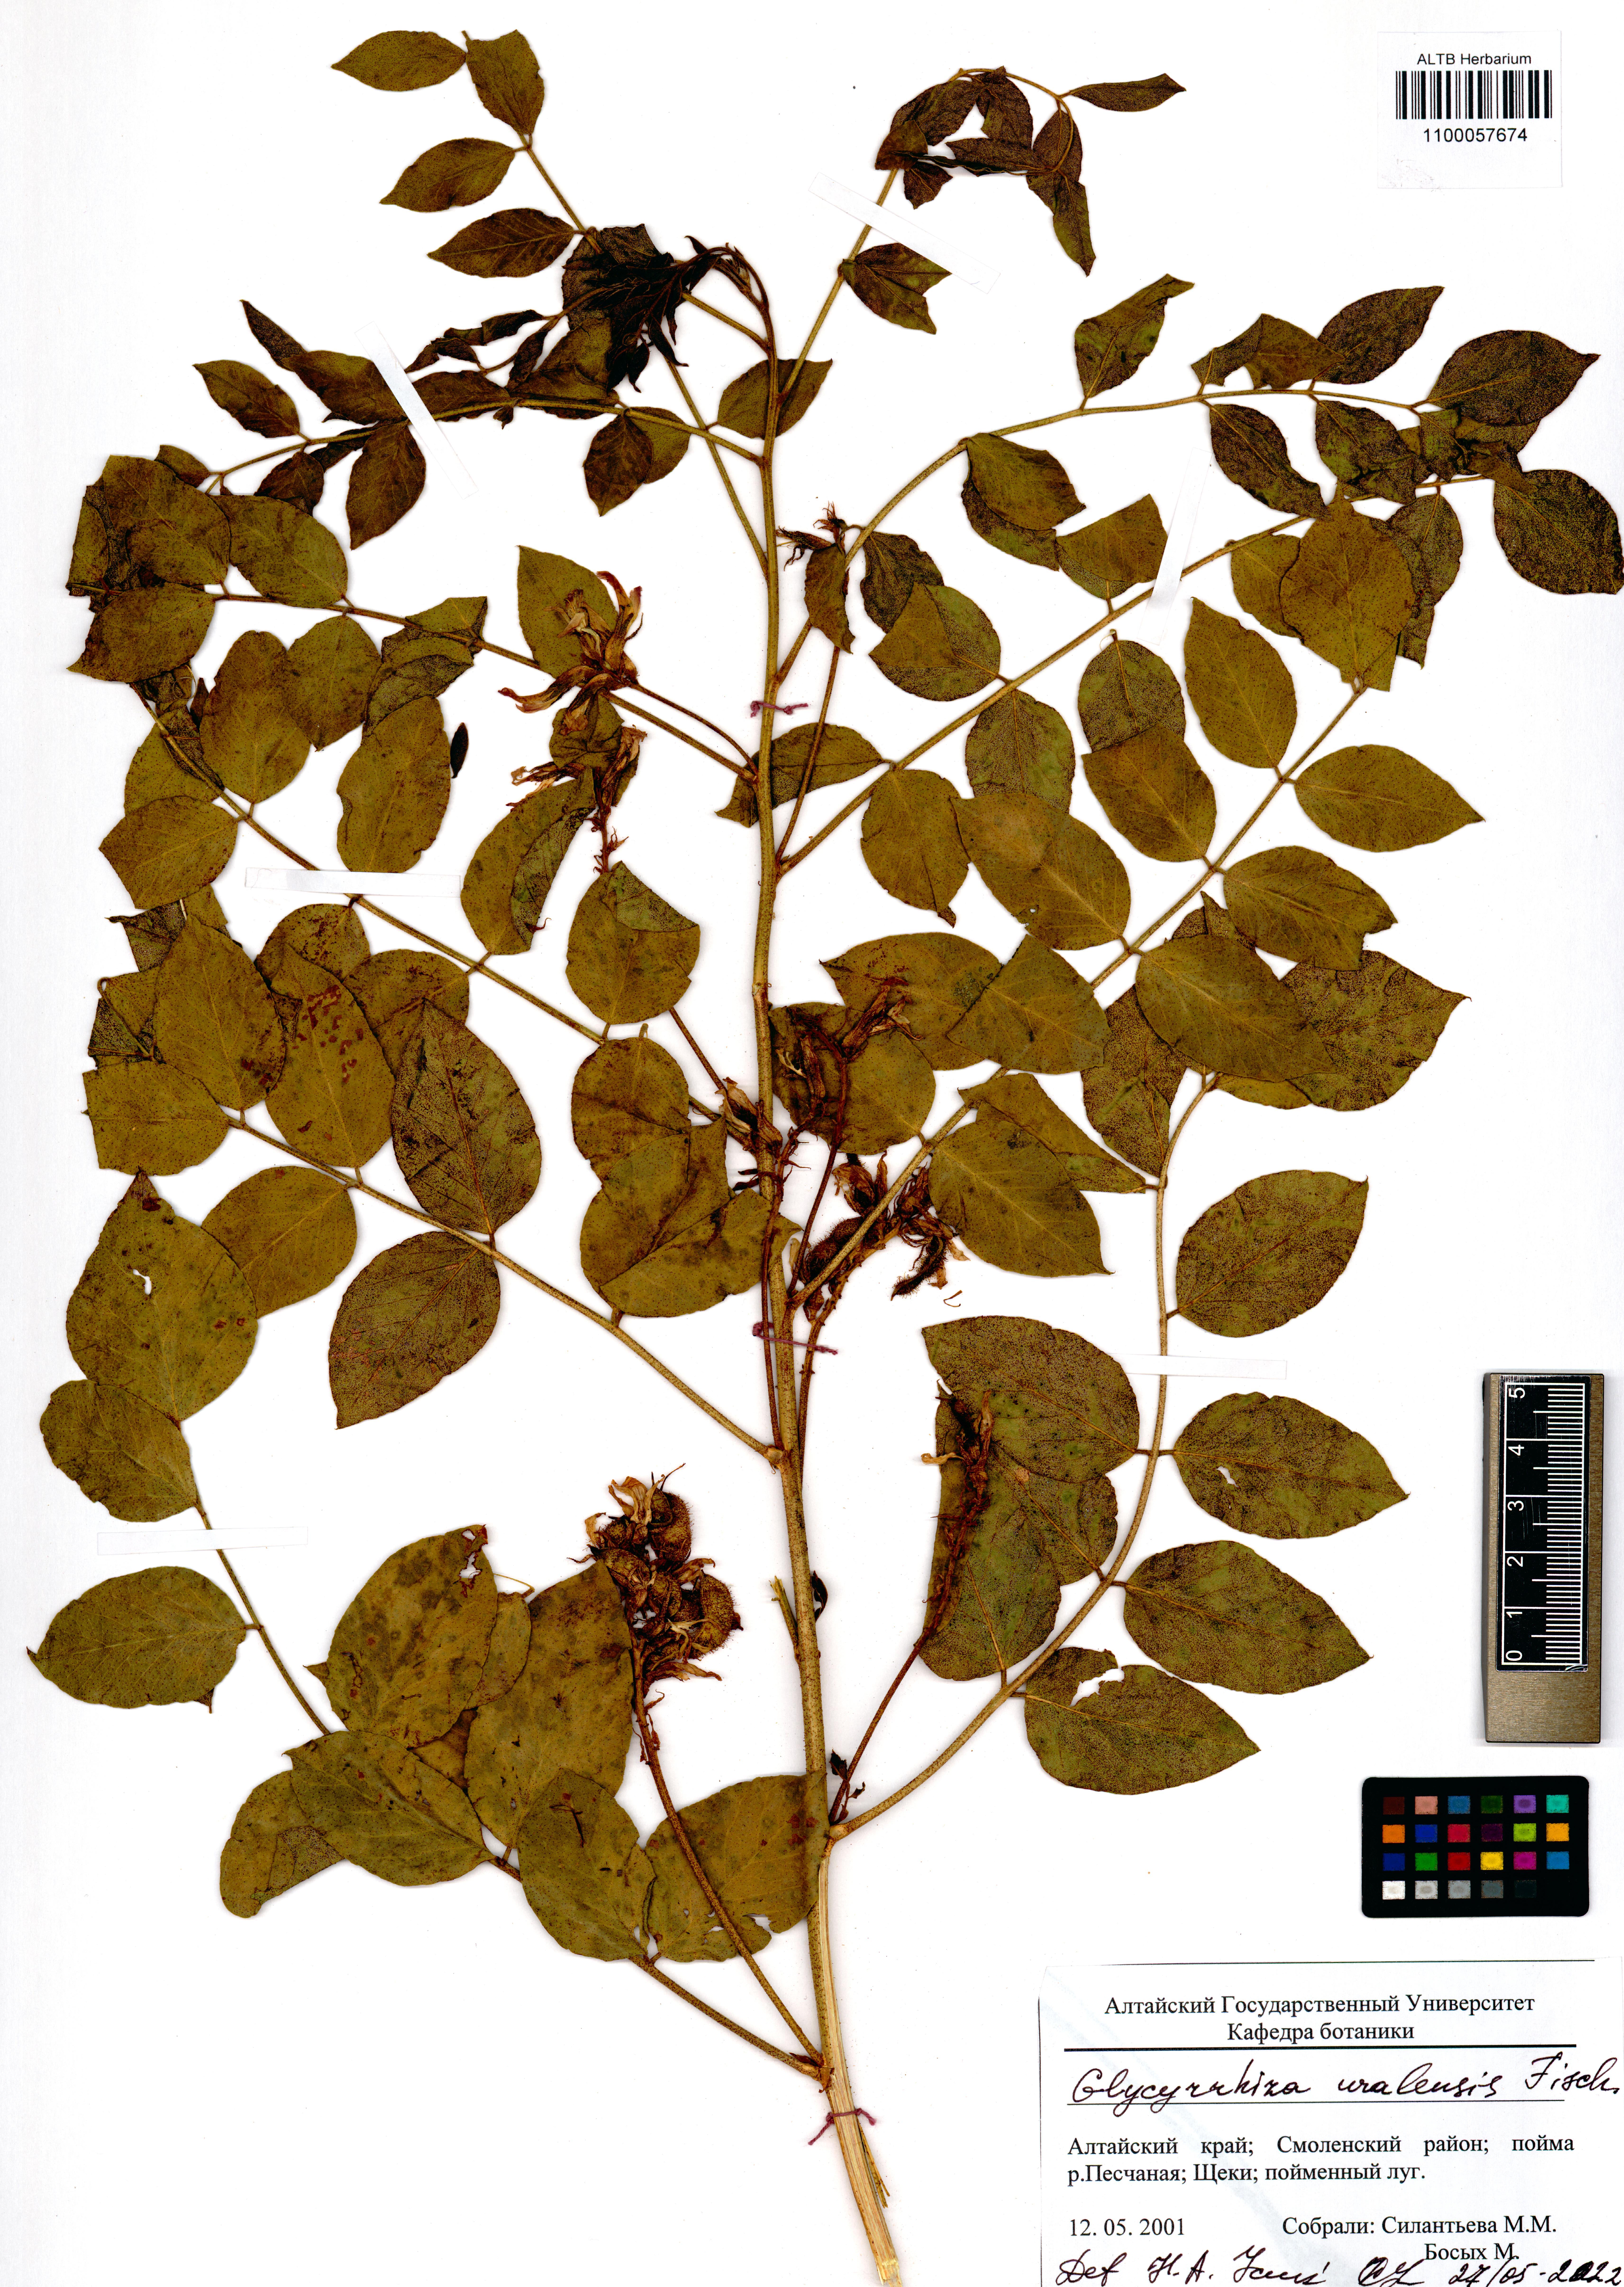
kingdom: Plantae
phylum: Tracheophyta
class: Magnoliopsida
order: Fabales
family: Fabaceae
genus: Glycyrrhiza
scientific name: Glycyrrhiza uralensis
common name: Chinese licorice
